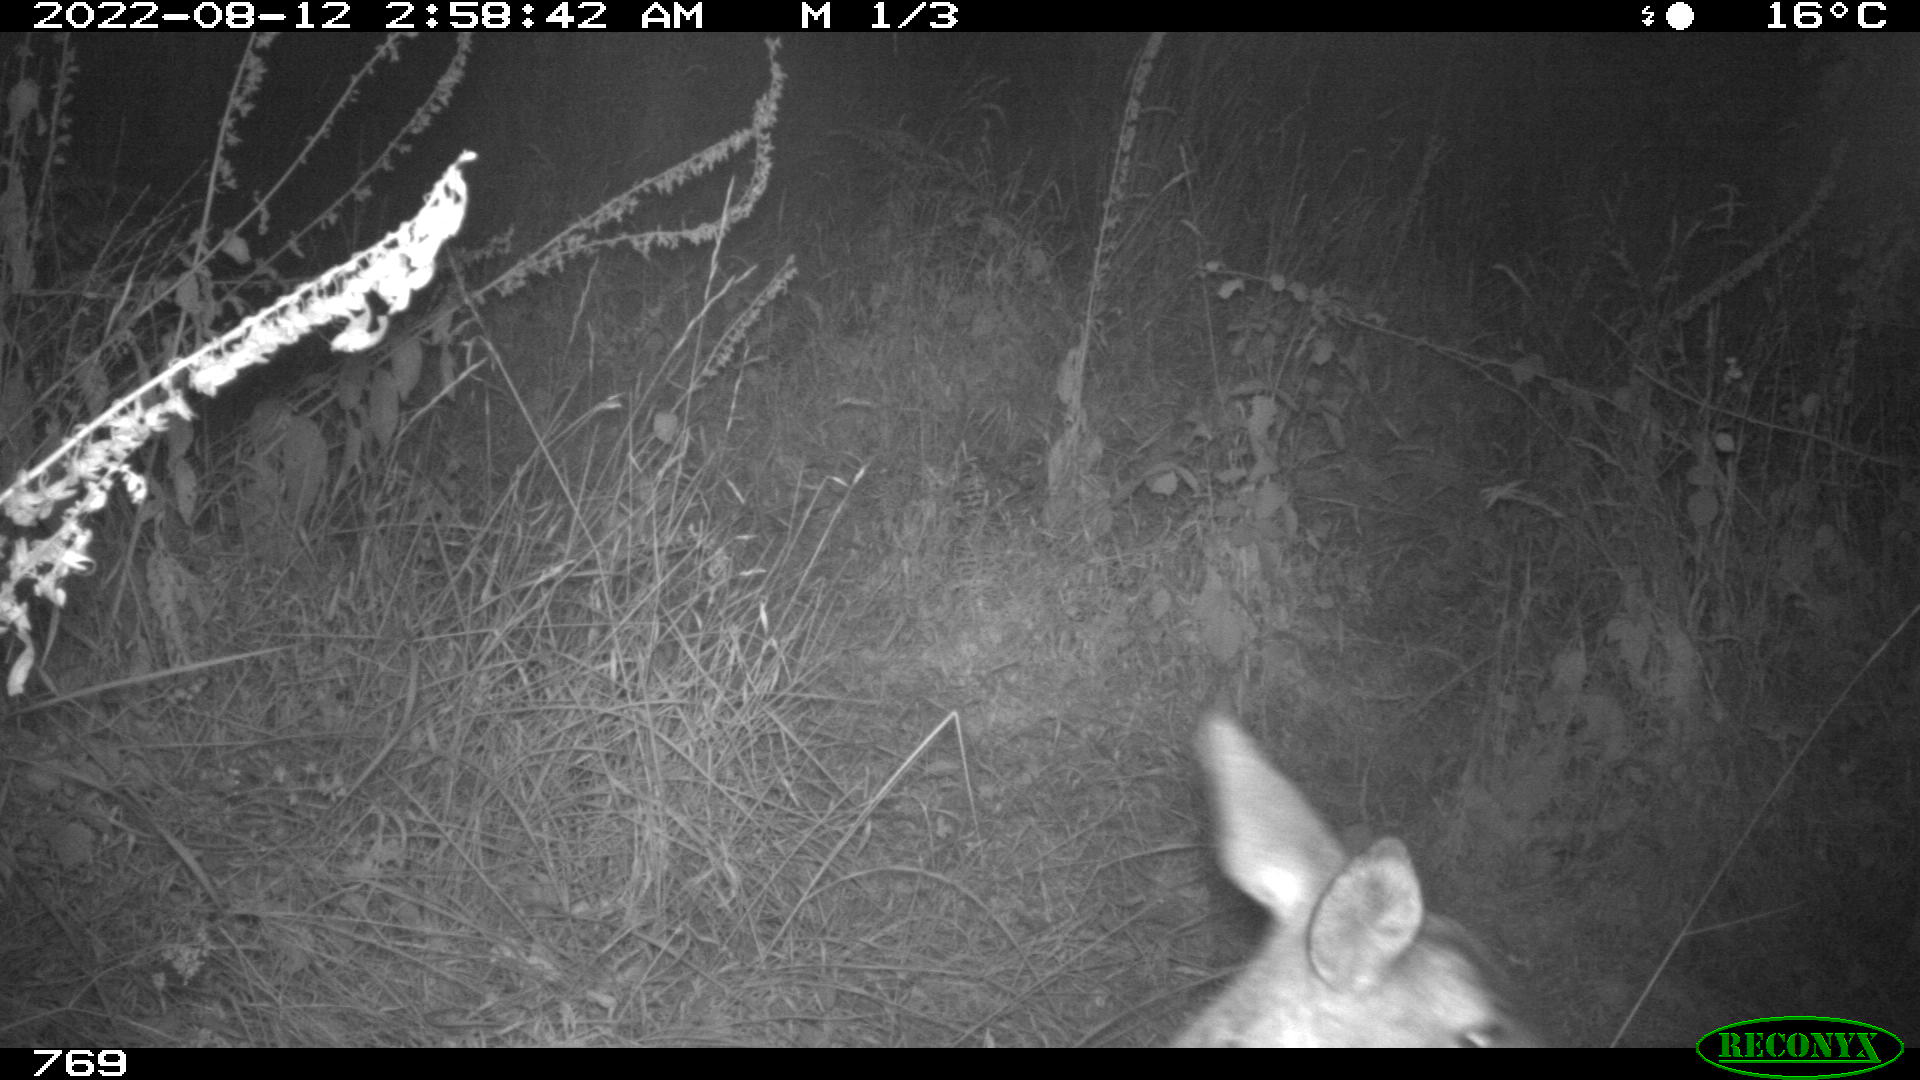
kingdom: Animalia
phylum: Chordata
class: Mammalia
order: Artiodactyla
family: Cervidae
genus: Capreolus
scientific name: Capreolus capreolus
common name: Western roe deer
